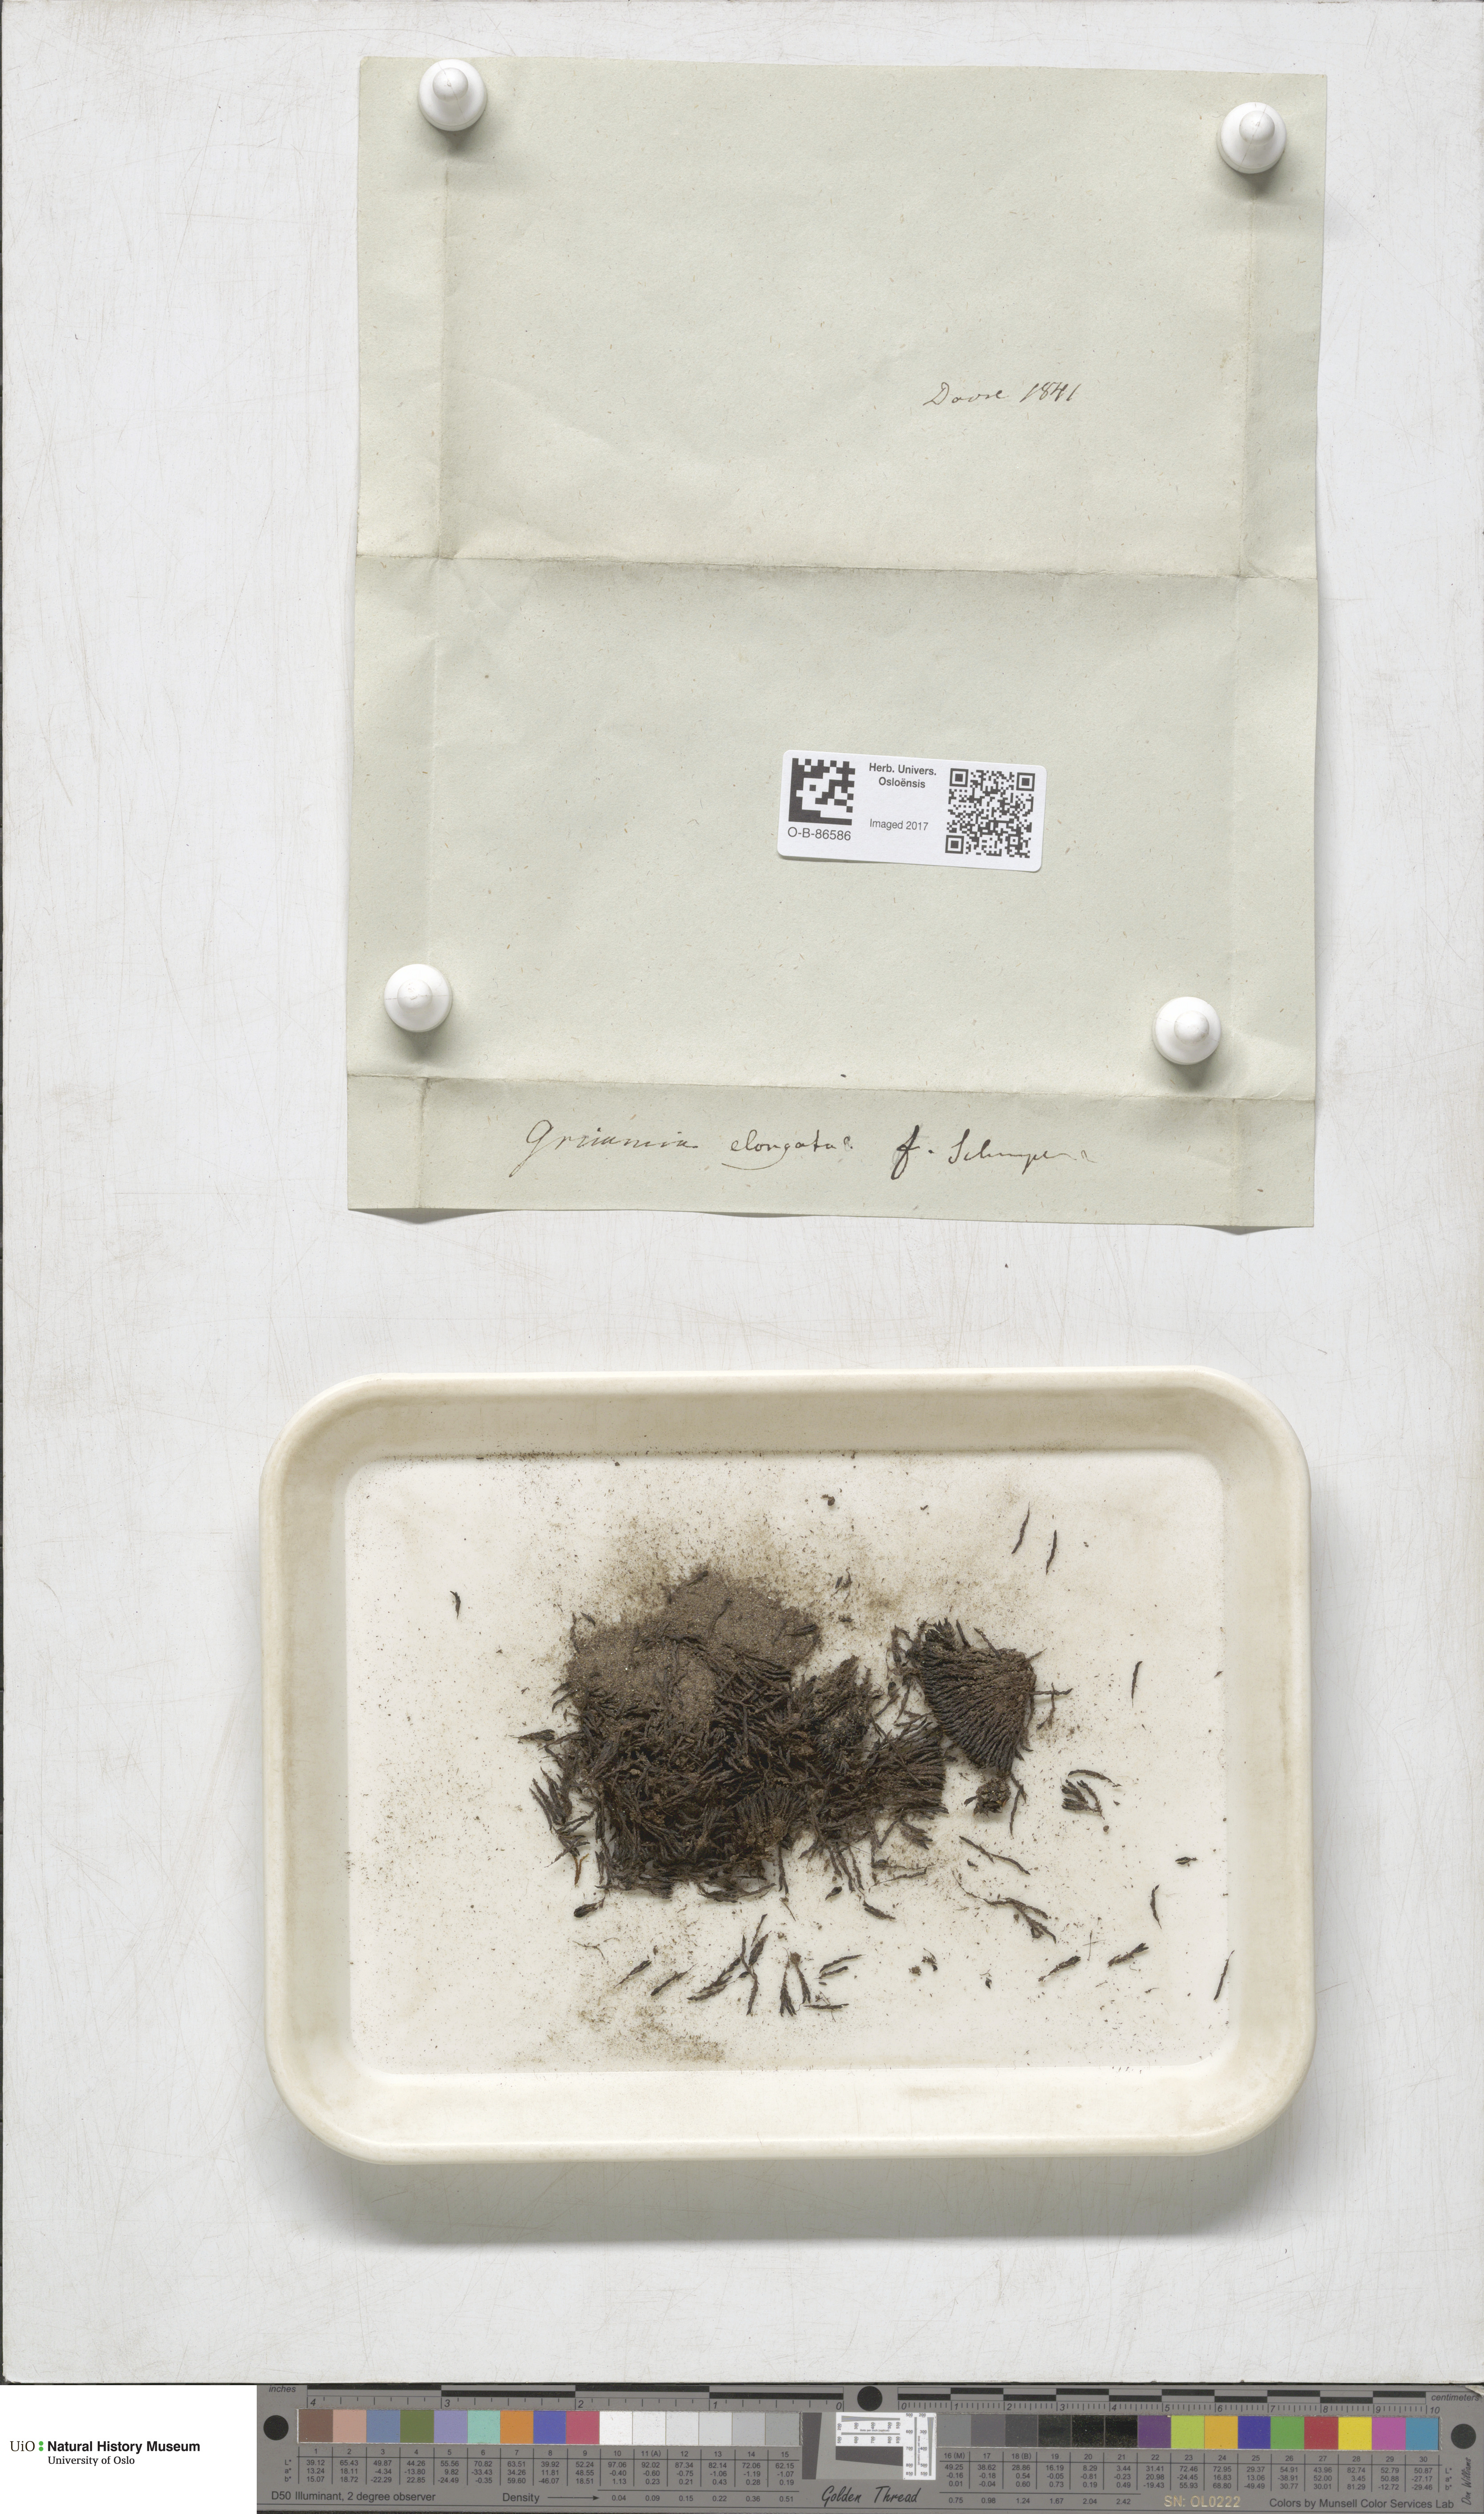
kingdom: Plantae
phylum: Bryophyta
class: Bryopsida
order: Grimmiales
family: Grimmiaceae
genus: Grimmia
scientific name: Grimmia elongata
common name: Brown grimmia
